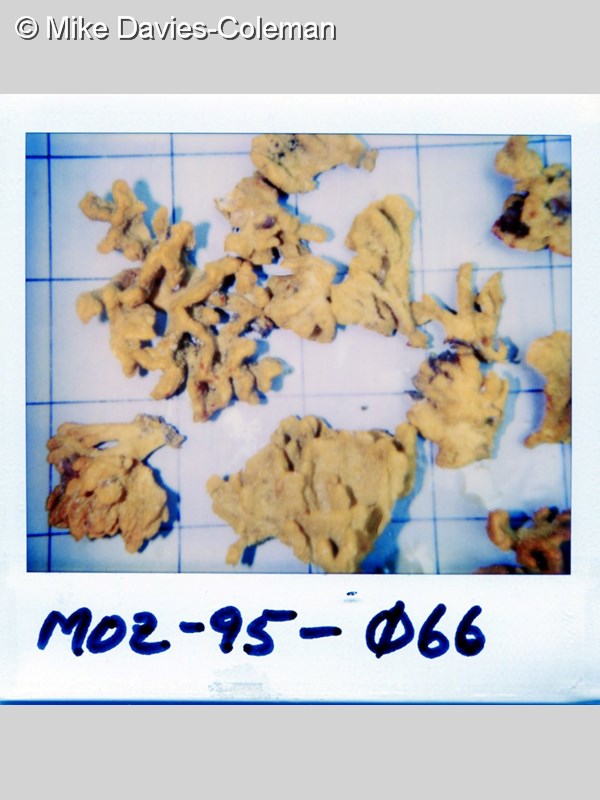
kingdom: Animalia
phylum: Porifera
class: Demospongiae
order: Axinellida
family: Axinellidae
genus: Axinella
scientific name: Axinella
